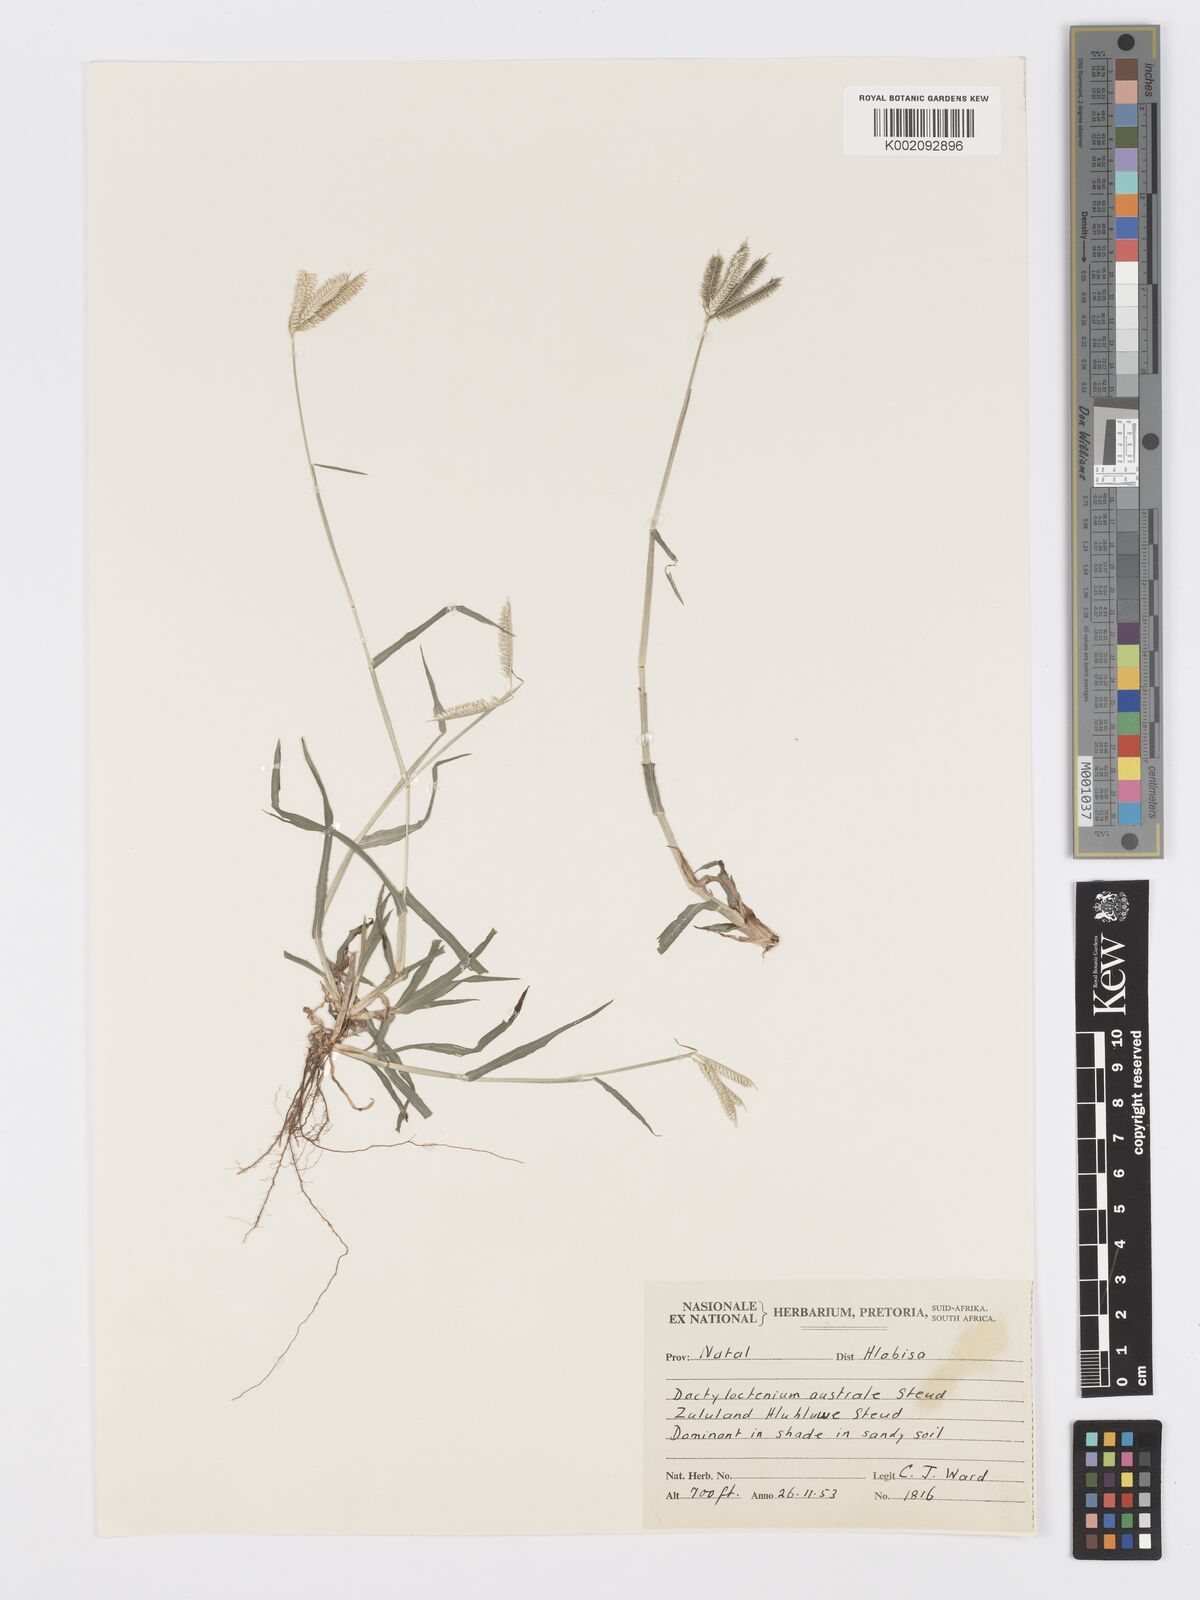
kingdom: Plantae
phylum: Tracheophyta
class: Liliopsida
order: Poales
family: Poaceae
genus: Dactyloctenium
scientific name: Dactyloctenium australe
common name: Durban grass
